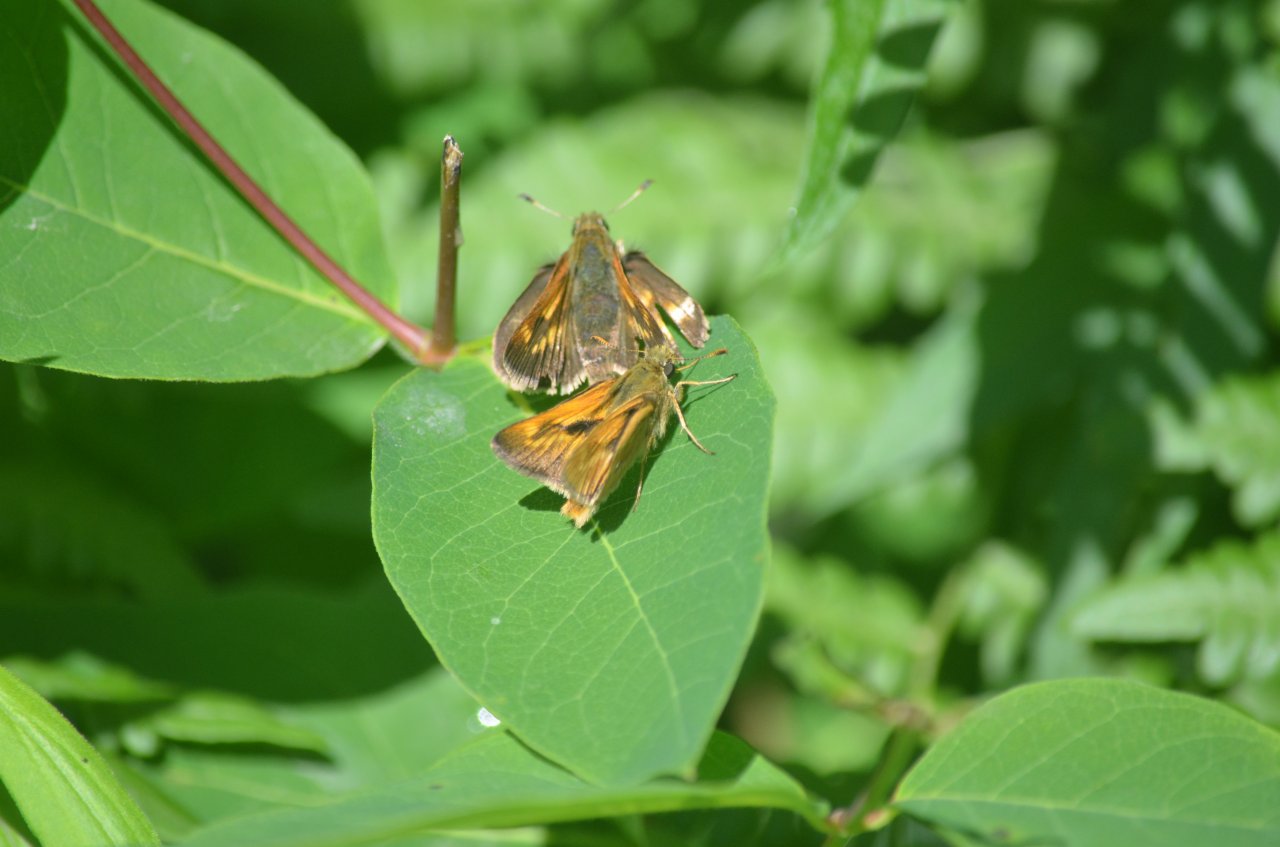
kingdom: Animalia
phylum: Arthropoda
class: Insecta
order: Lepidoptera
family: Hesperiidae
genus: Polites
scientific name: Polites
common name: Long Dash Skipper
